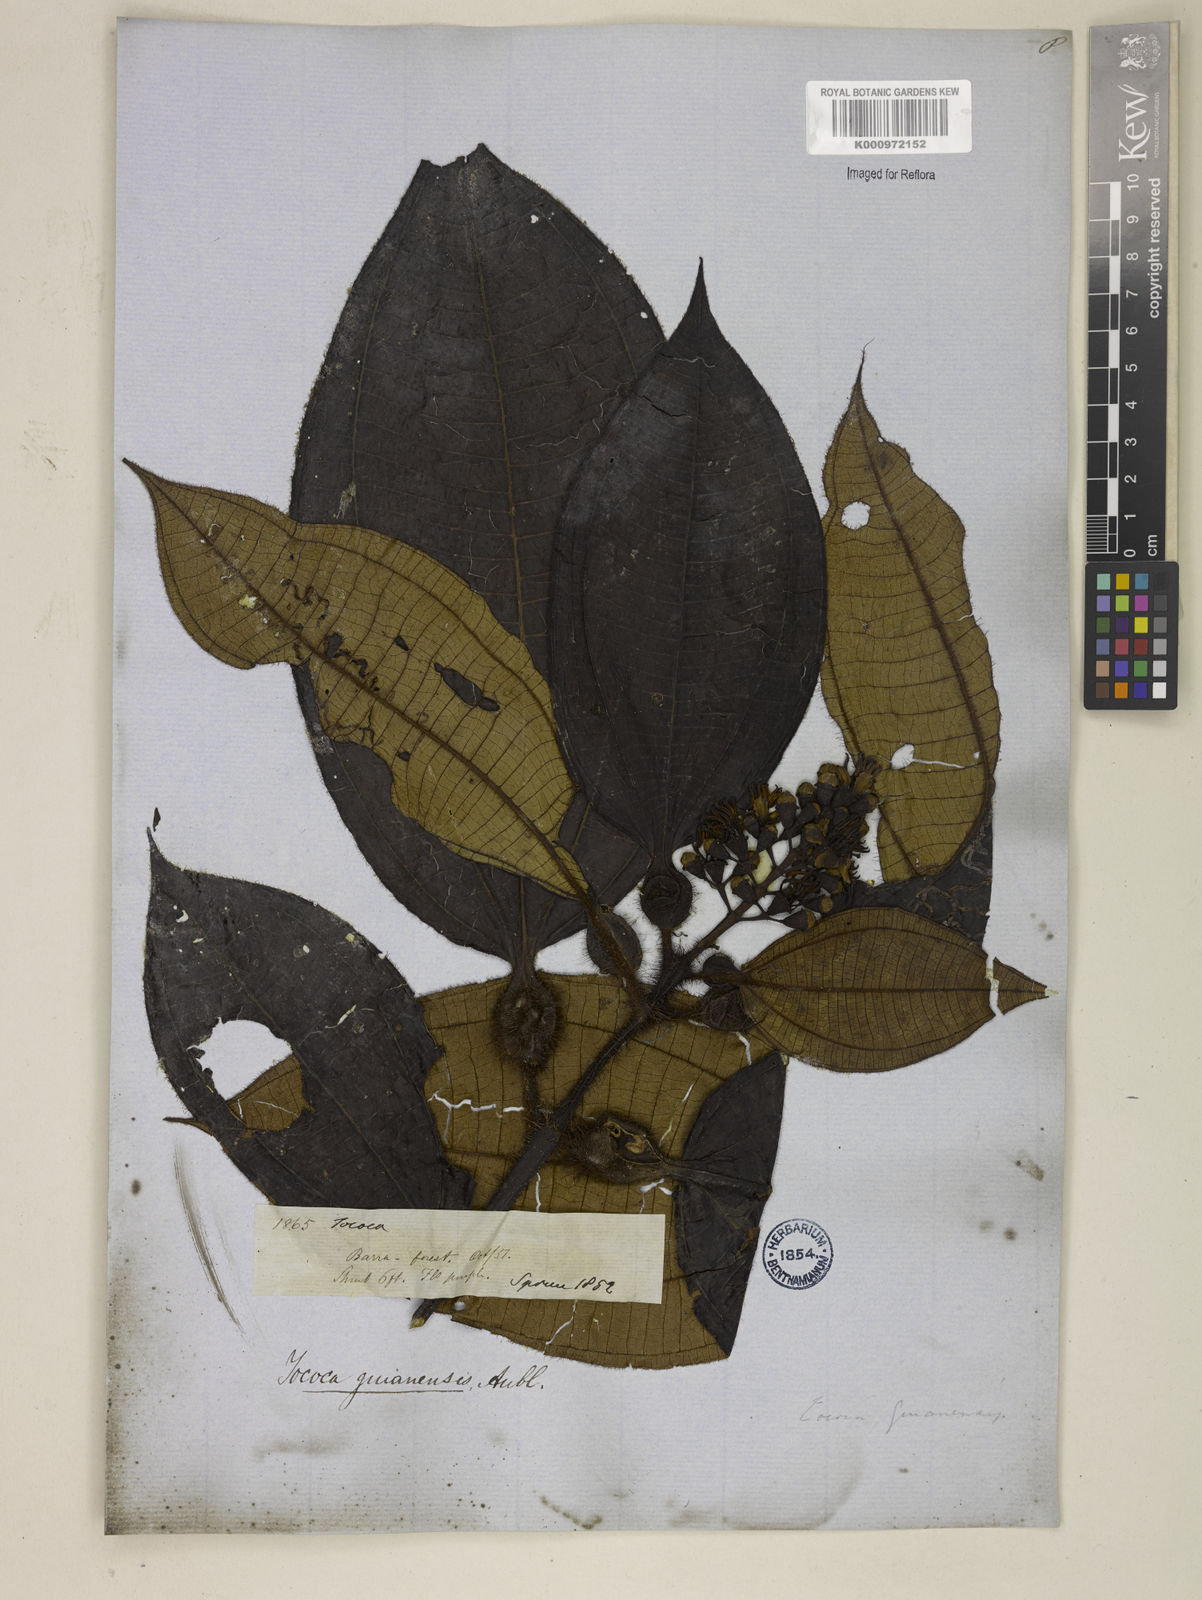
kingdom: Plantae
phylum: Tracheophyta
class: Magnoliopsida
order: Myrtales
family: Melastomataceae
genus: Miconia
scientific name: Miconia tococa
